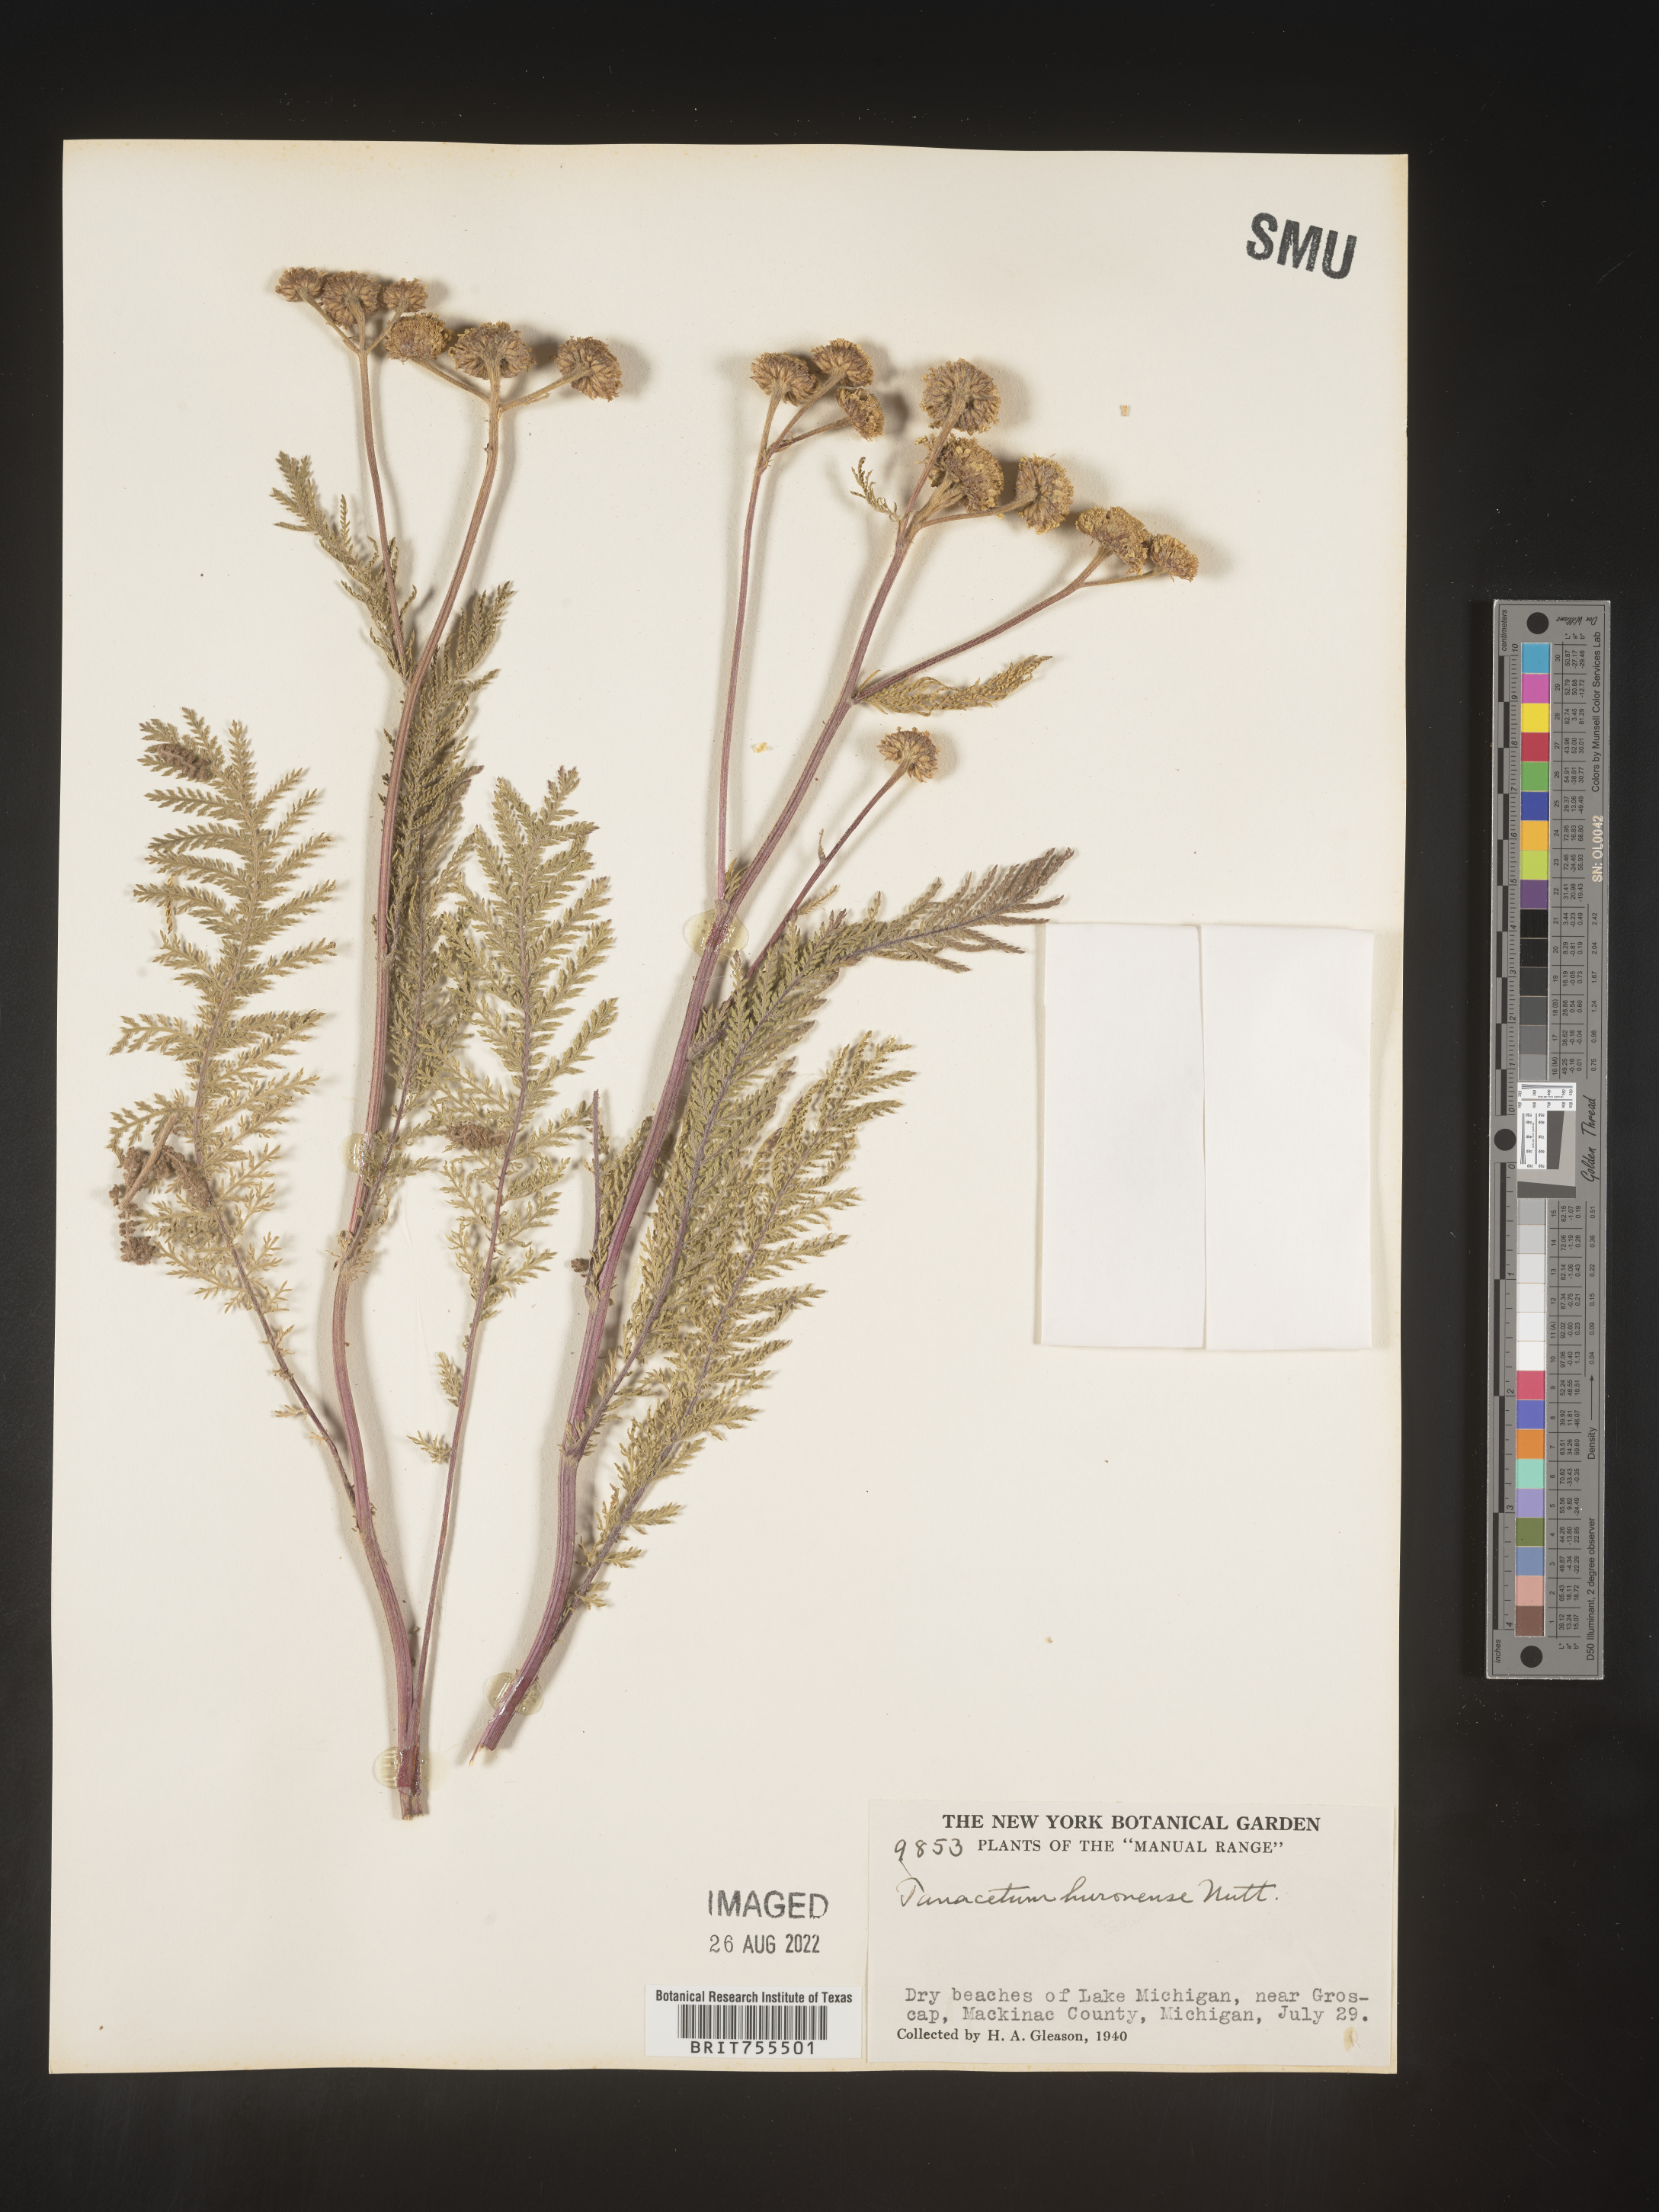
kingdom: Plantae
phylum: Tracheophyta
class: Magnoliopsida
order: Asterales
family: Asteraceae
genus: Tanacetum
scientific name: Tanacetum bipinnatum
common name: Dwarf tansy
